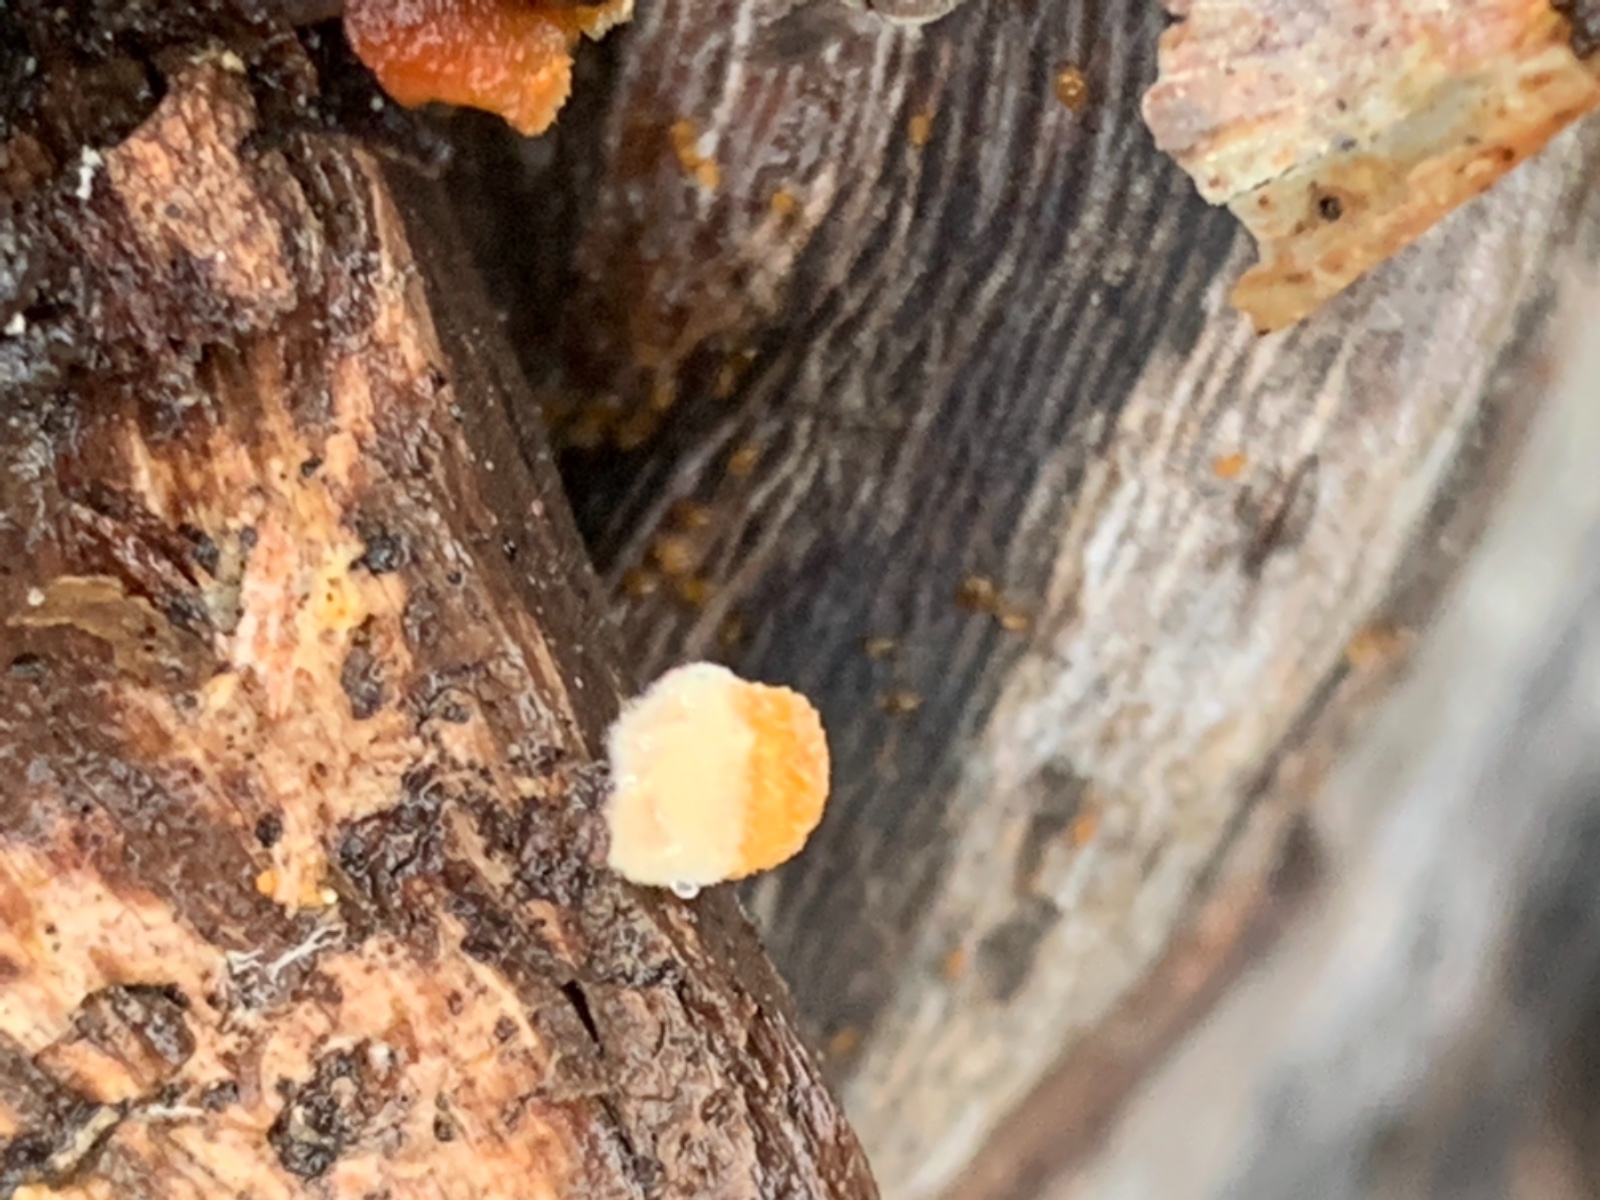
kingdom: Fungi
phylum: Basidiomycota
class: Agaricomycetes
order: Agaricales
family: Nidulariaceae
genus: Crucibulum
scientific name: Crucibulum crucibuliforme
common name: krukkesvamp
